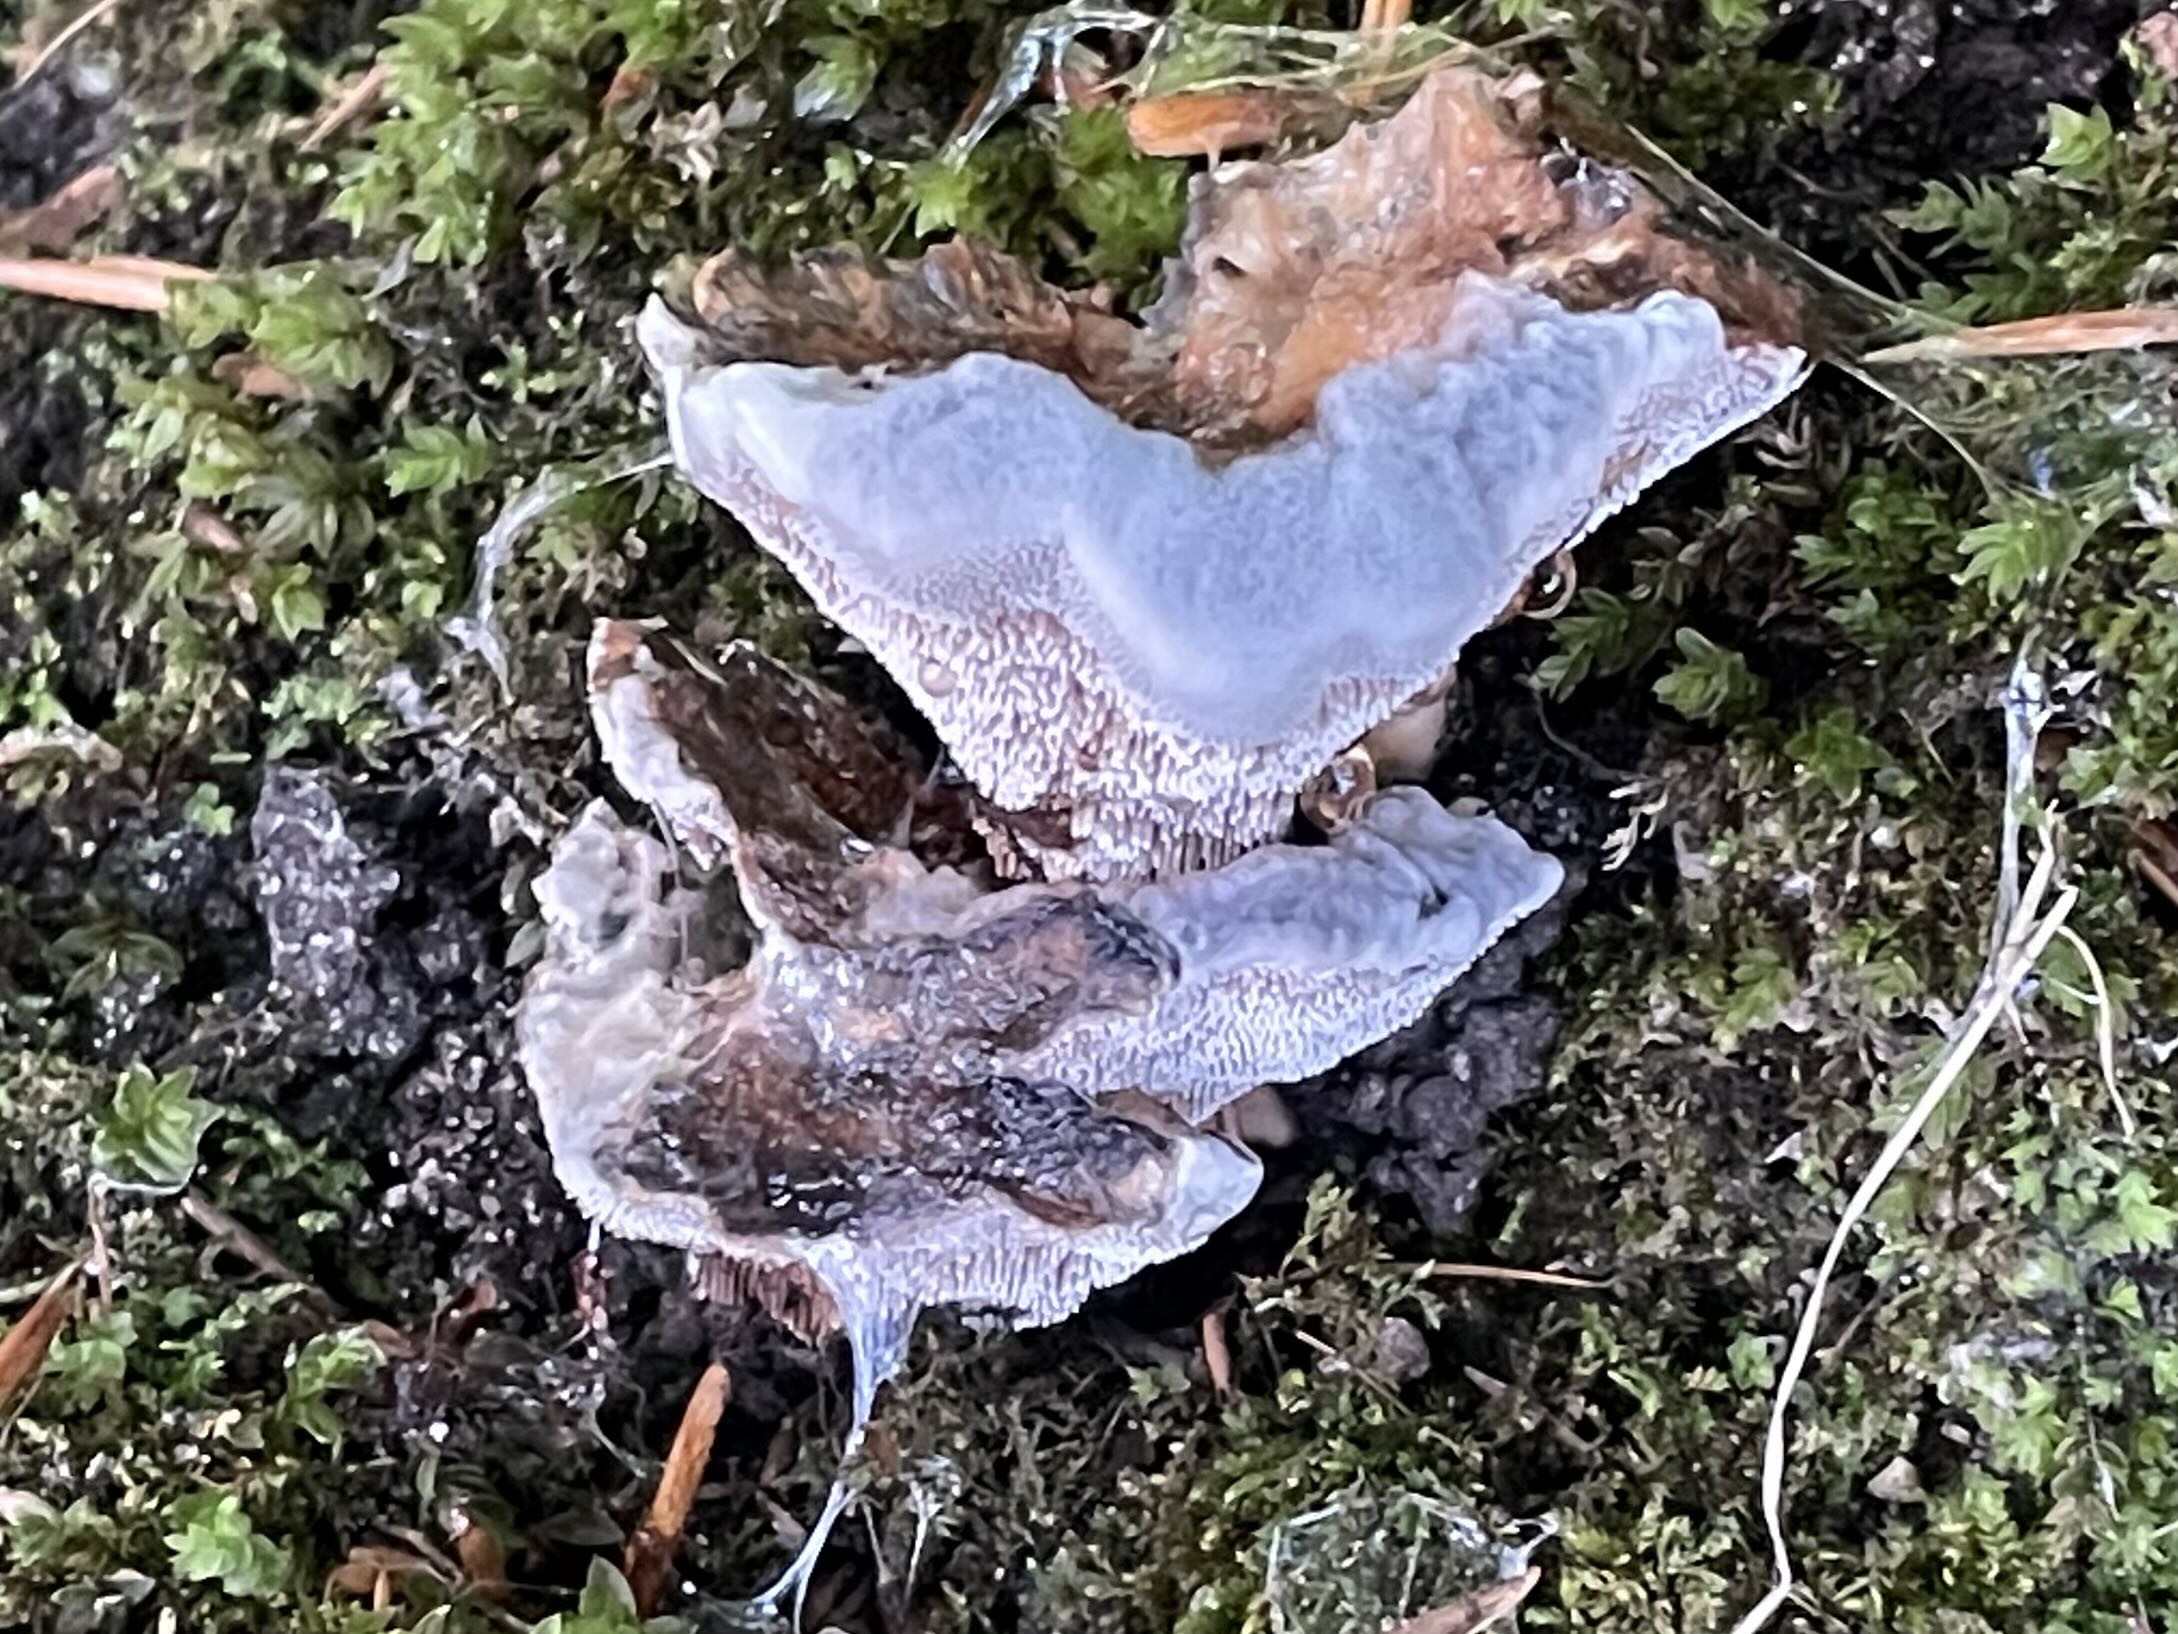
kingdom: Fungi
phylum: Basidiomycota
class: Agaricomycetes
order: Thelephorales
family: Bankeraceae
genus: Hydnellum
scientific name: Hydnellum caeruleum
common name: blålig korkpigsvamp
